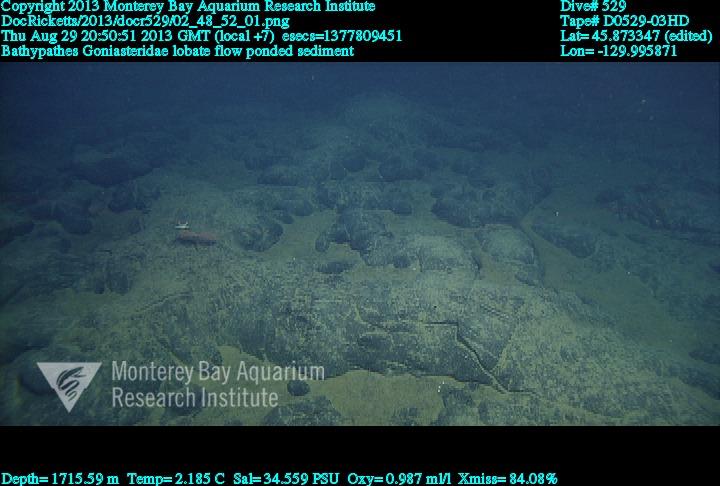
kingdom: Animalia
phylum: Cnidaria
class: Anthozoa
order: Antipatharia
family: Schizopathidae
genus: Bathypathes
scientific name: Bathypathes
